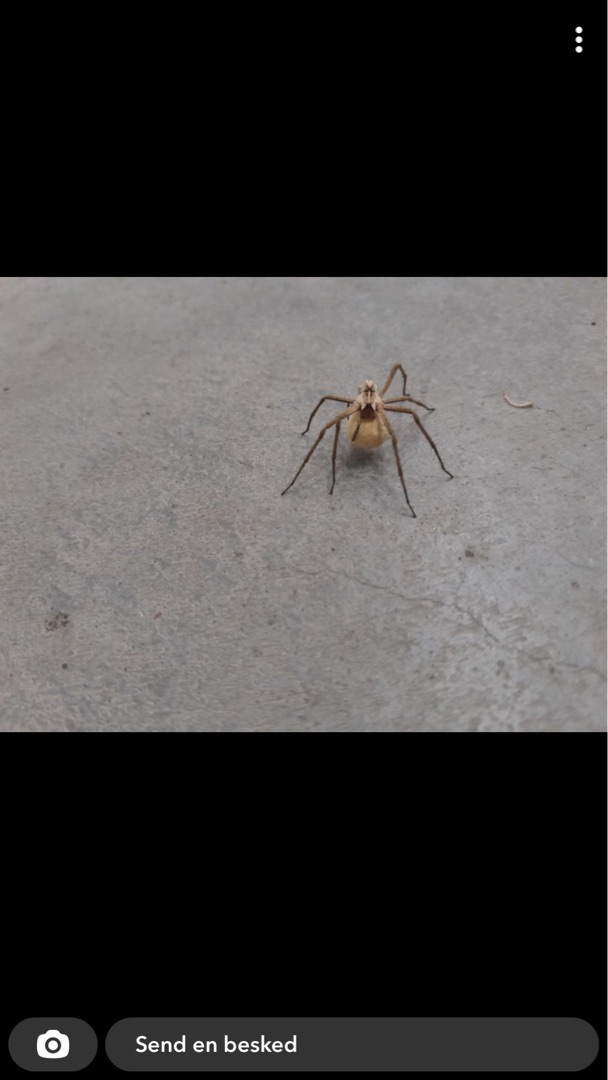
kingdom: Animalia
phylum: Arthropoda
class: Arachnida
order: Araneae
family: Pisauridae
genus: Pisaura
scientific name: Pisaura mirabilis
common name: Almindelig rovedderkop
